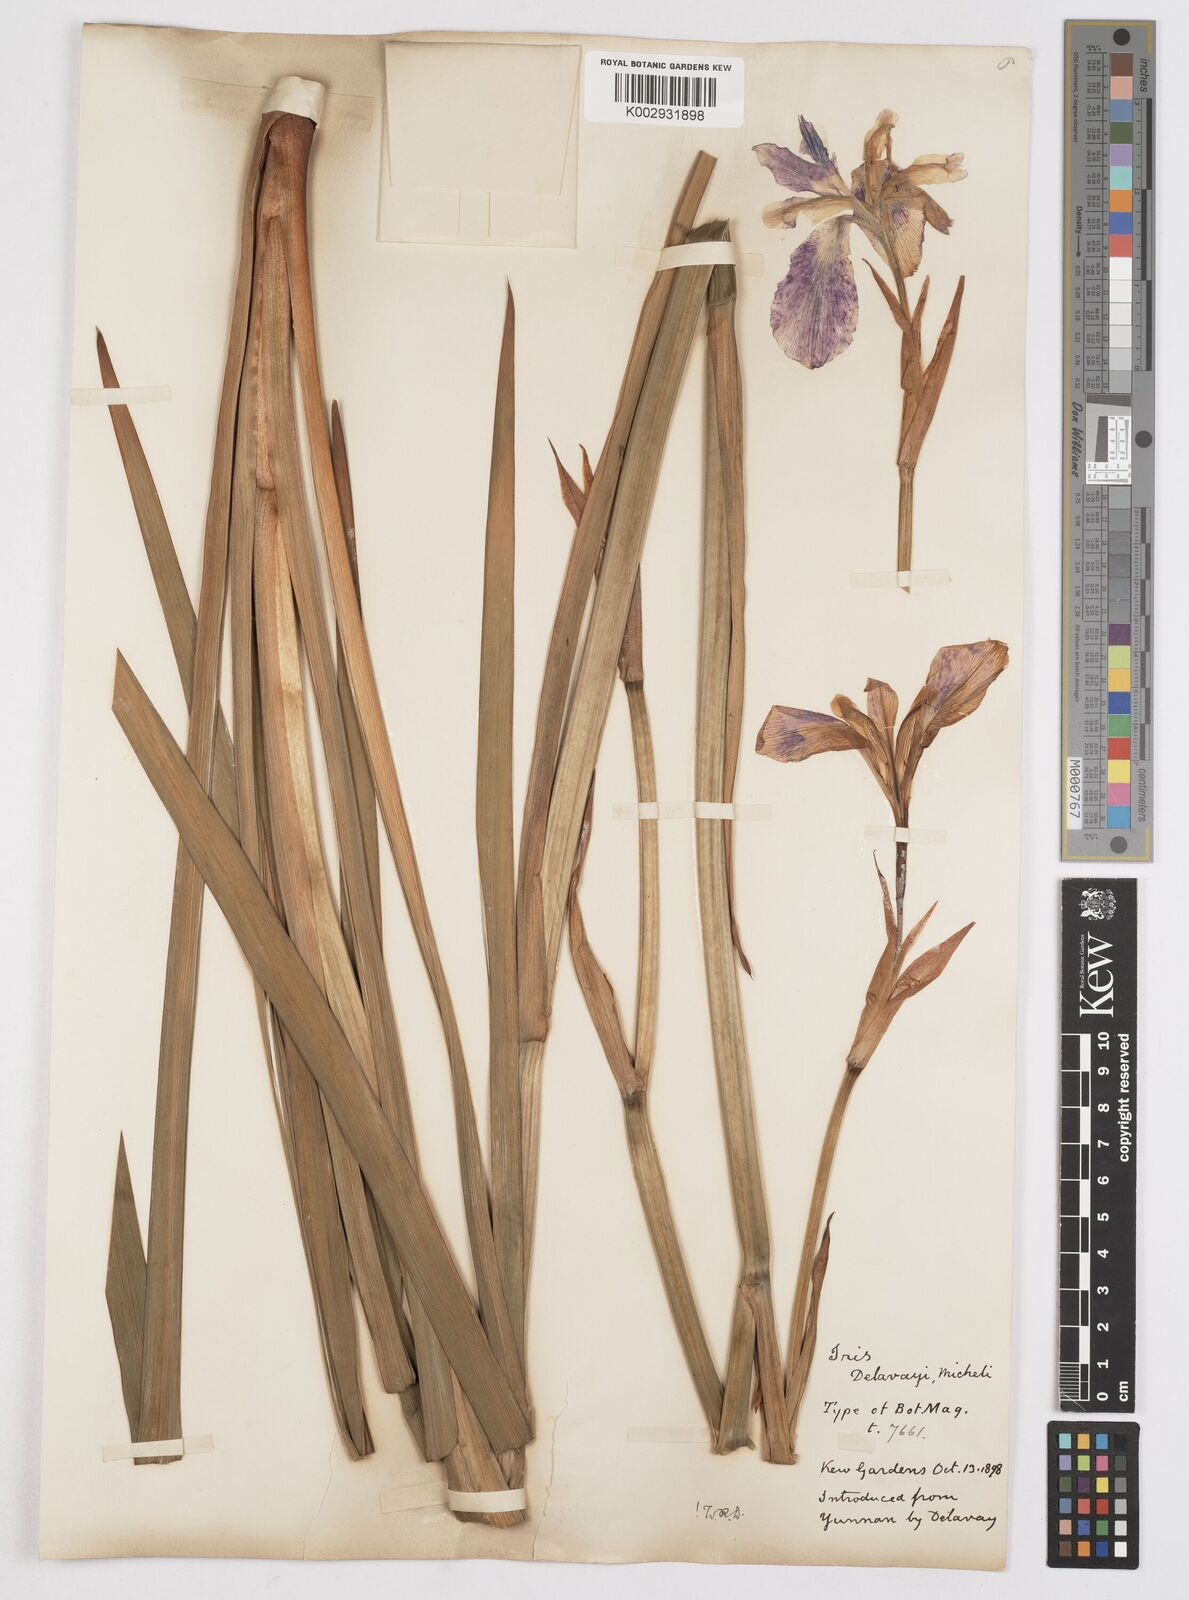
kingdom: Plantae
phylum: Tracheophyta
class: Liliopsida
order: Asparagales
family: Iridaceae
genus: Iris
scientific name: Iris delavayi
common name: Long-scape iris
